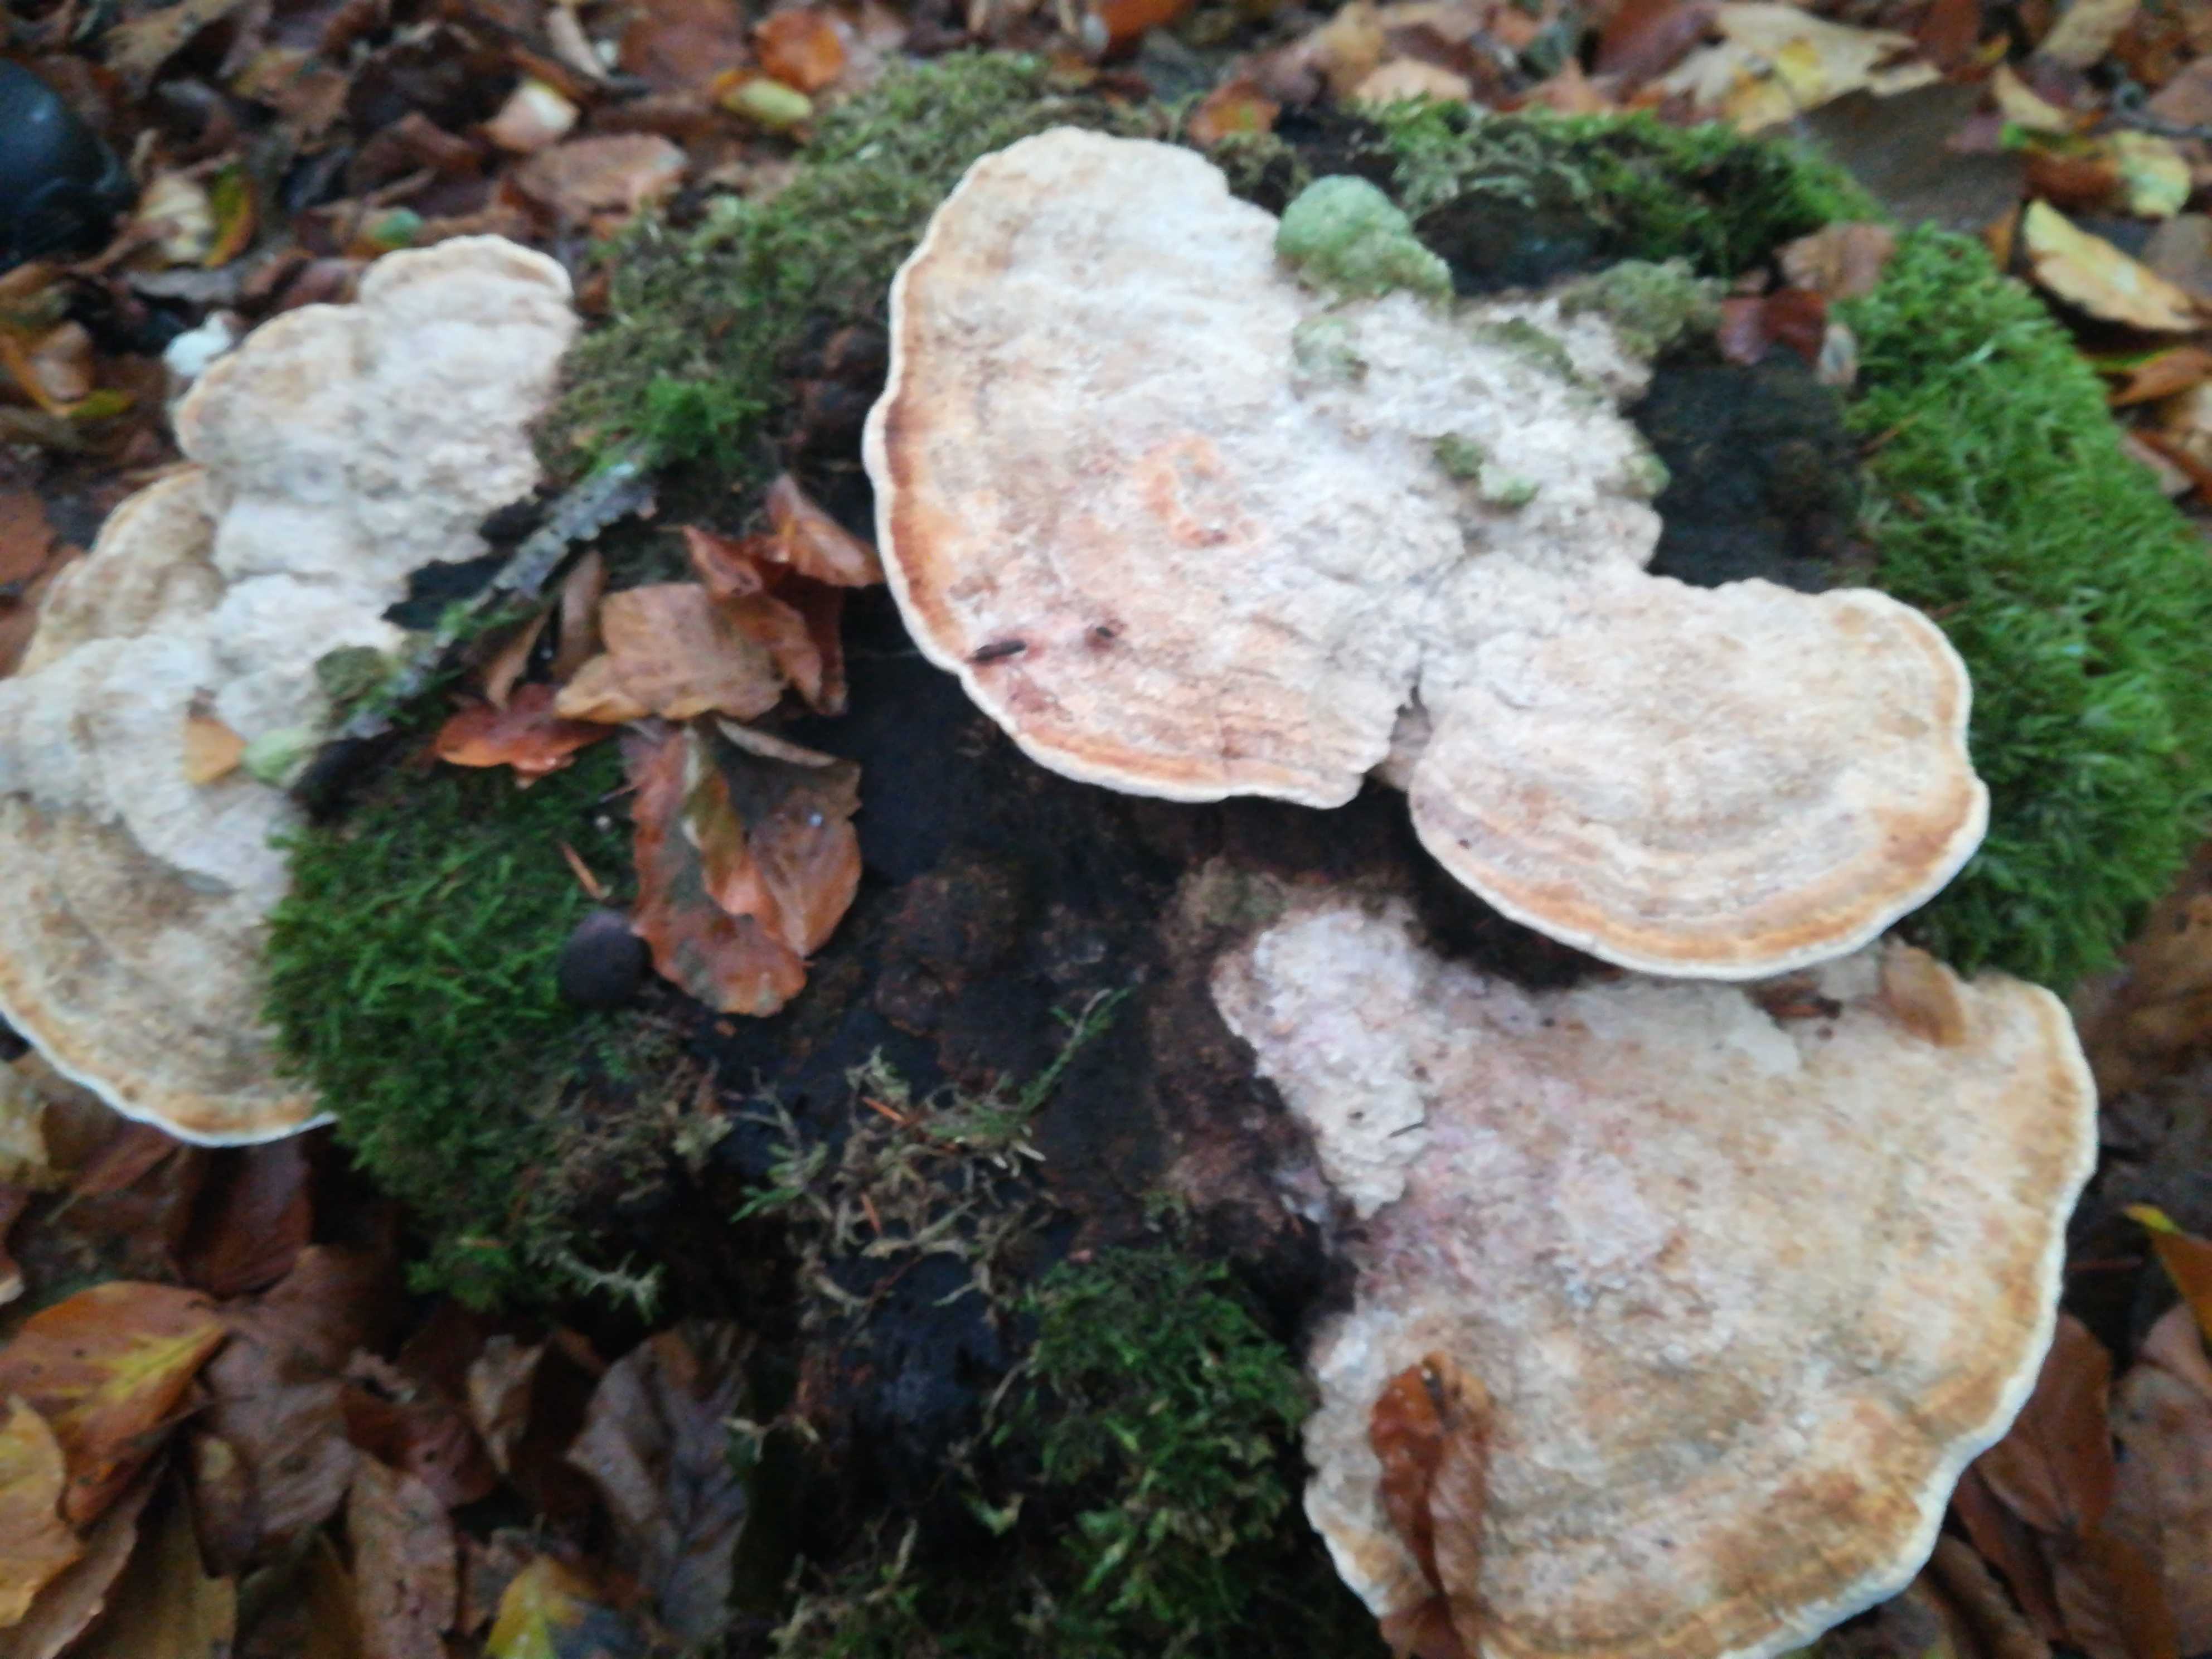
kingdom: Fungi
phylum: Basidiomycota
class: Agaricomycetes
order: Polyporales
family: Fomitopsidaceae
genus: Daedalea
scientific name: Daedalea quercina
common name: ege-labyrintsvamp
